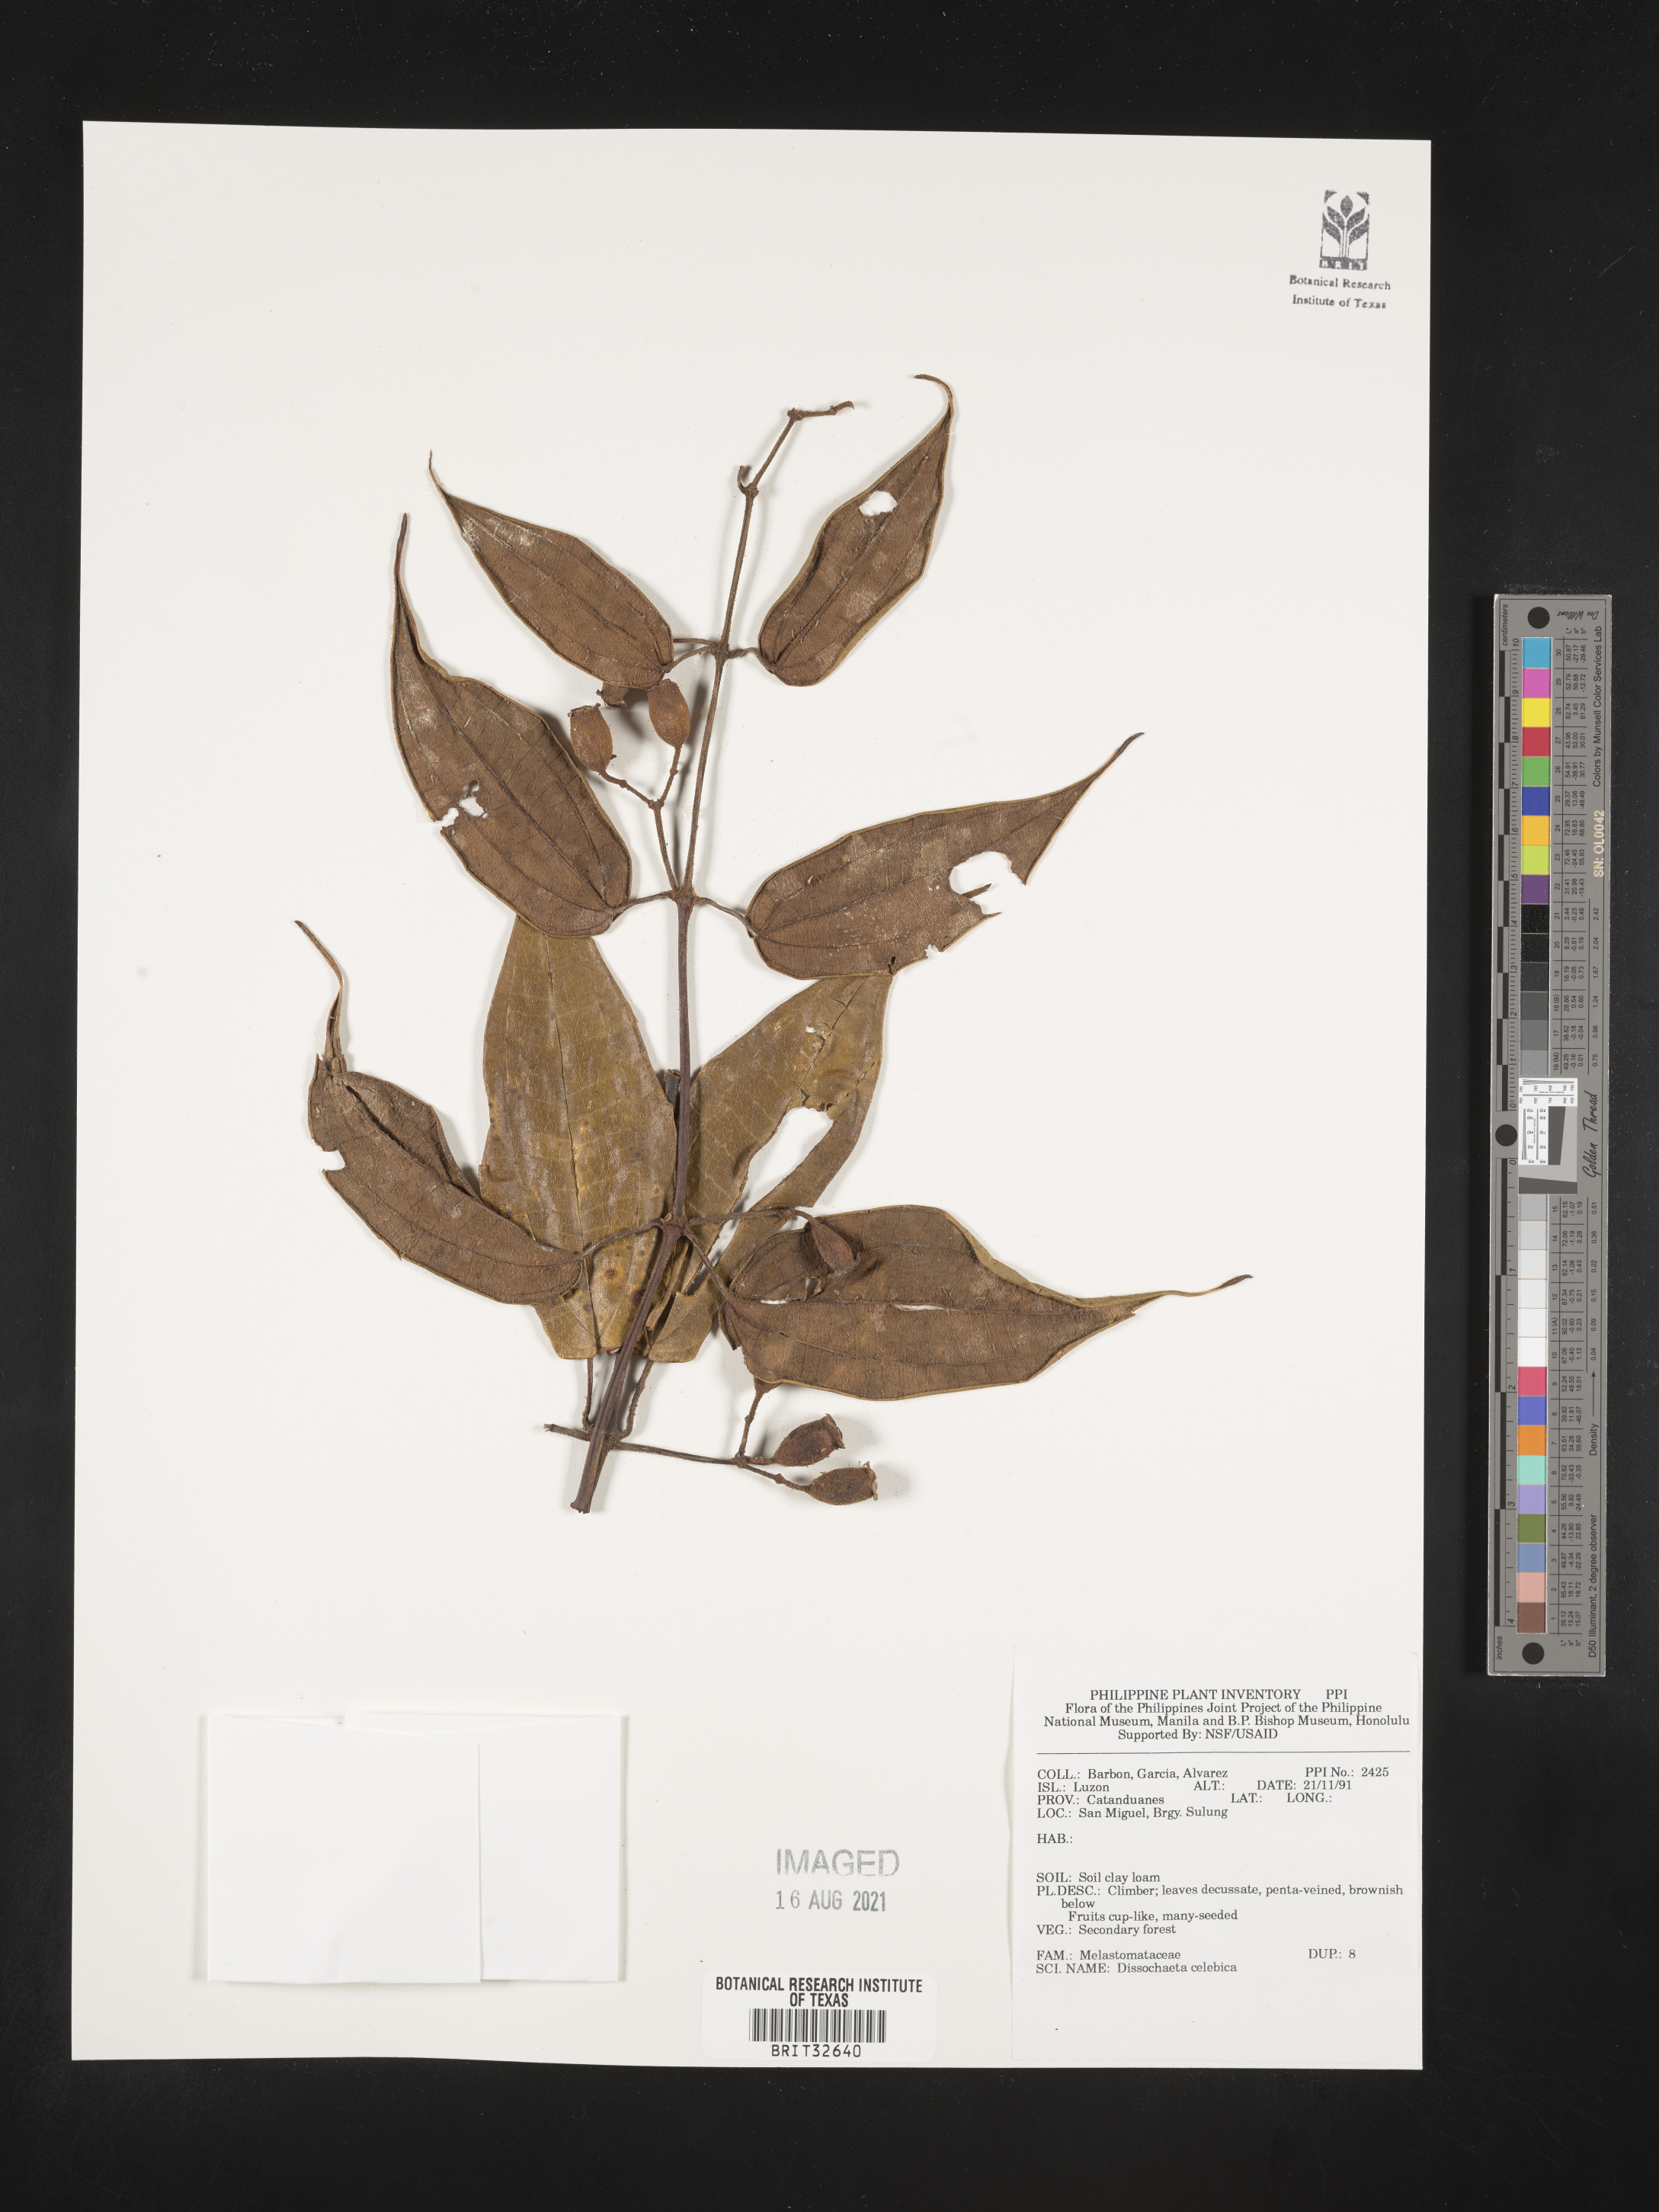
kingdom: Plantae
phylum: Tracheophyta
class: Magnoliopsida
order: Myrtales
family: Melastomataceae
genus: Dissochaeta
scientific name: Dissochaeta celebica
